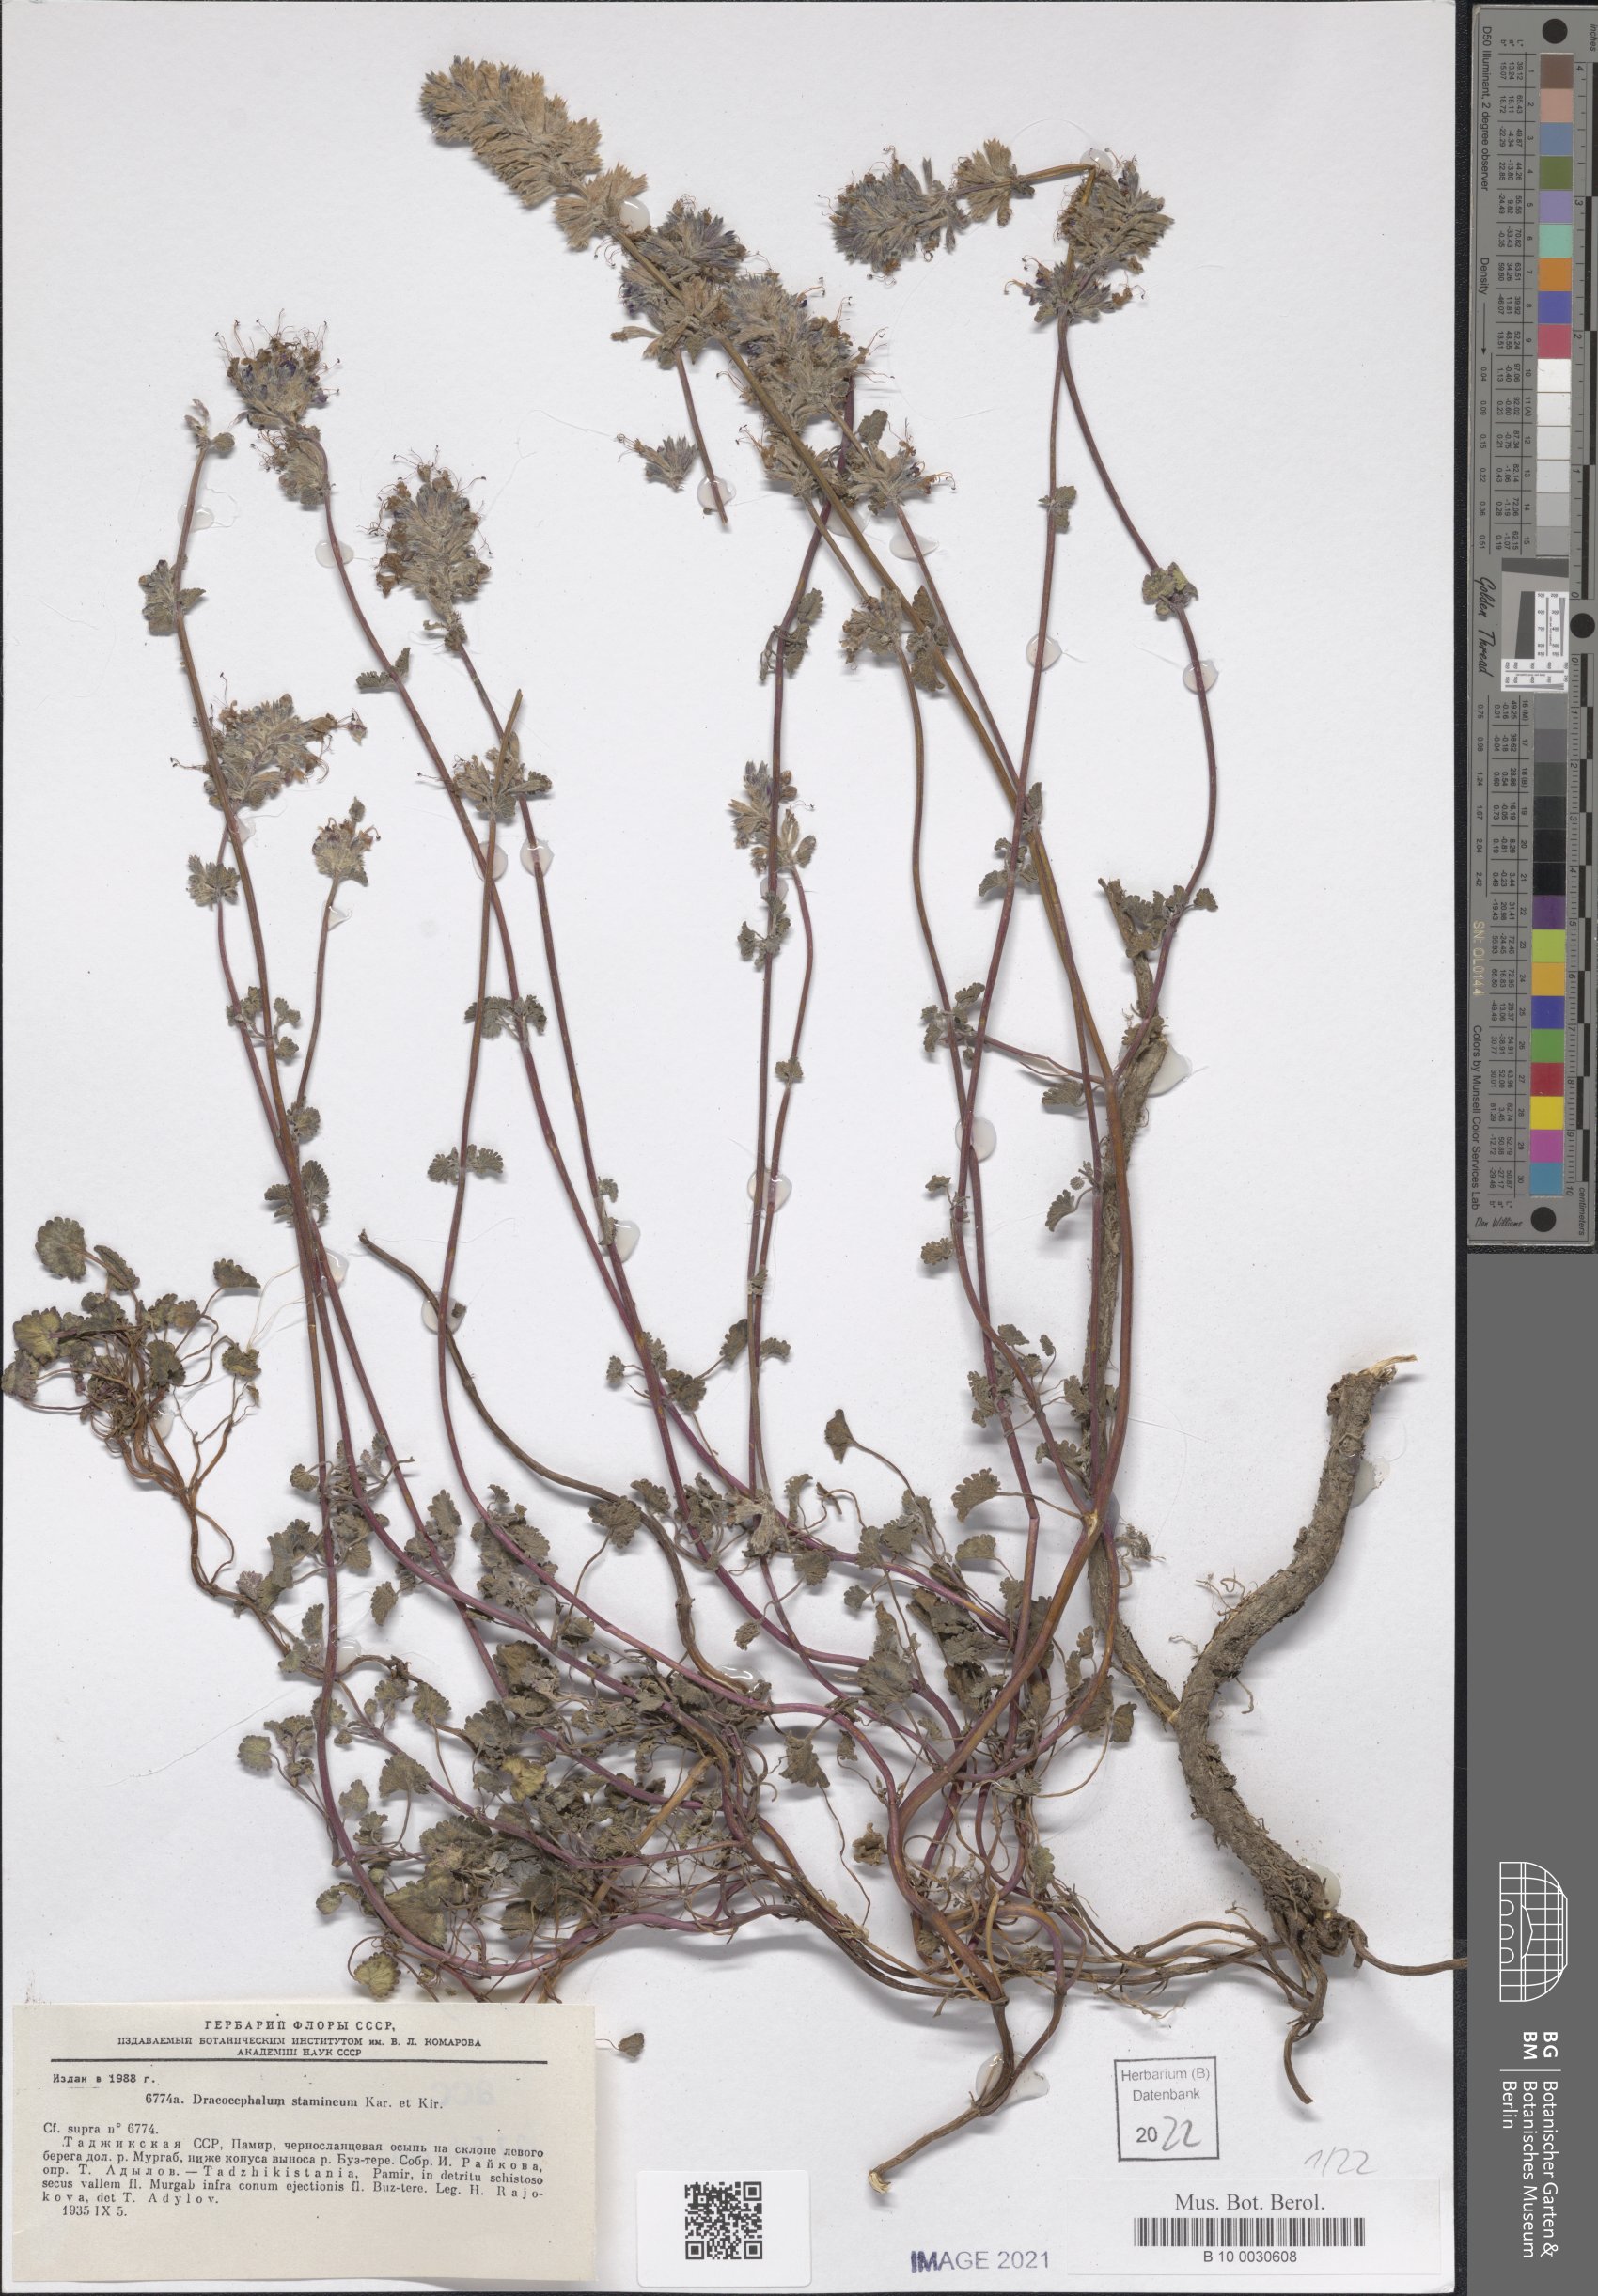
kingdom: Plantae
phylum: Tracheophyta
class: Magnoliopsida
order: Lamiales
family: Lamiaceae
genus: Dracocephalum
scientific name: Dracocephalum stamineum
